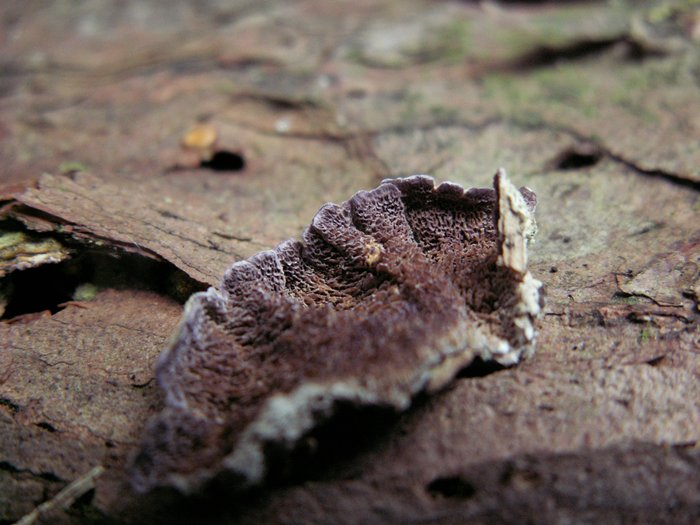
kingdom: Fungi
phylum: Basidiomycota
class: Agaricomycetes
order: Hymenochaetales
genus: Trichaptum
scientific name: Trichaptum abietinum
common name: almindelig violporesvamp
